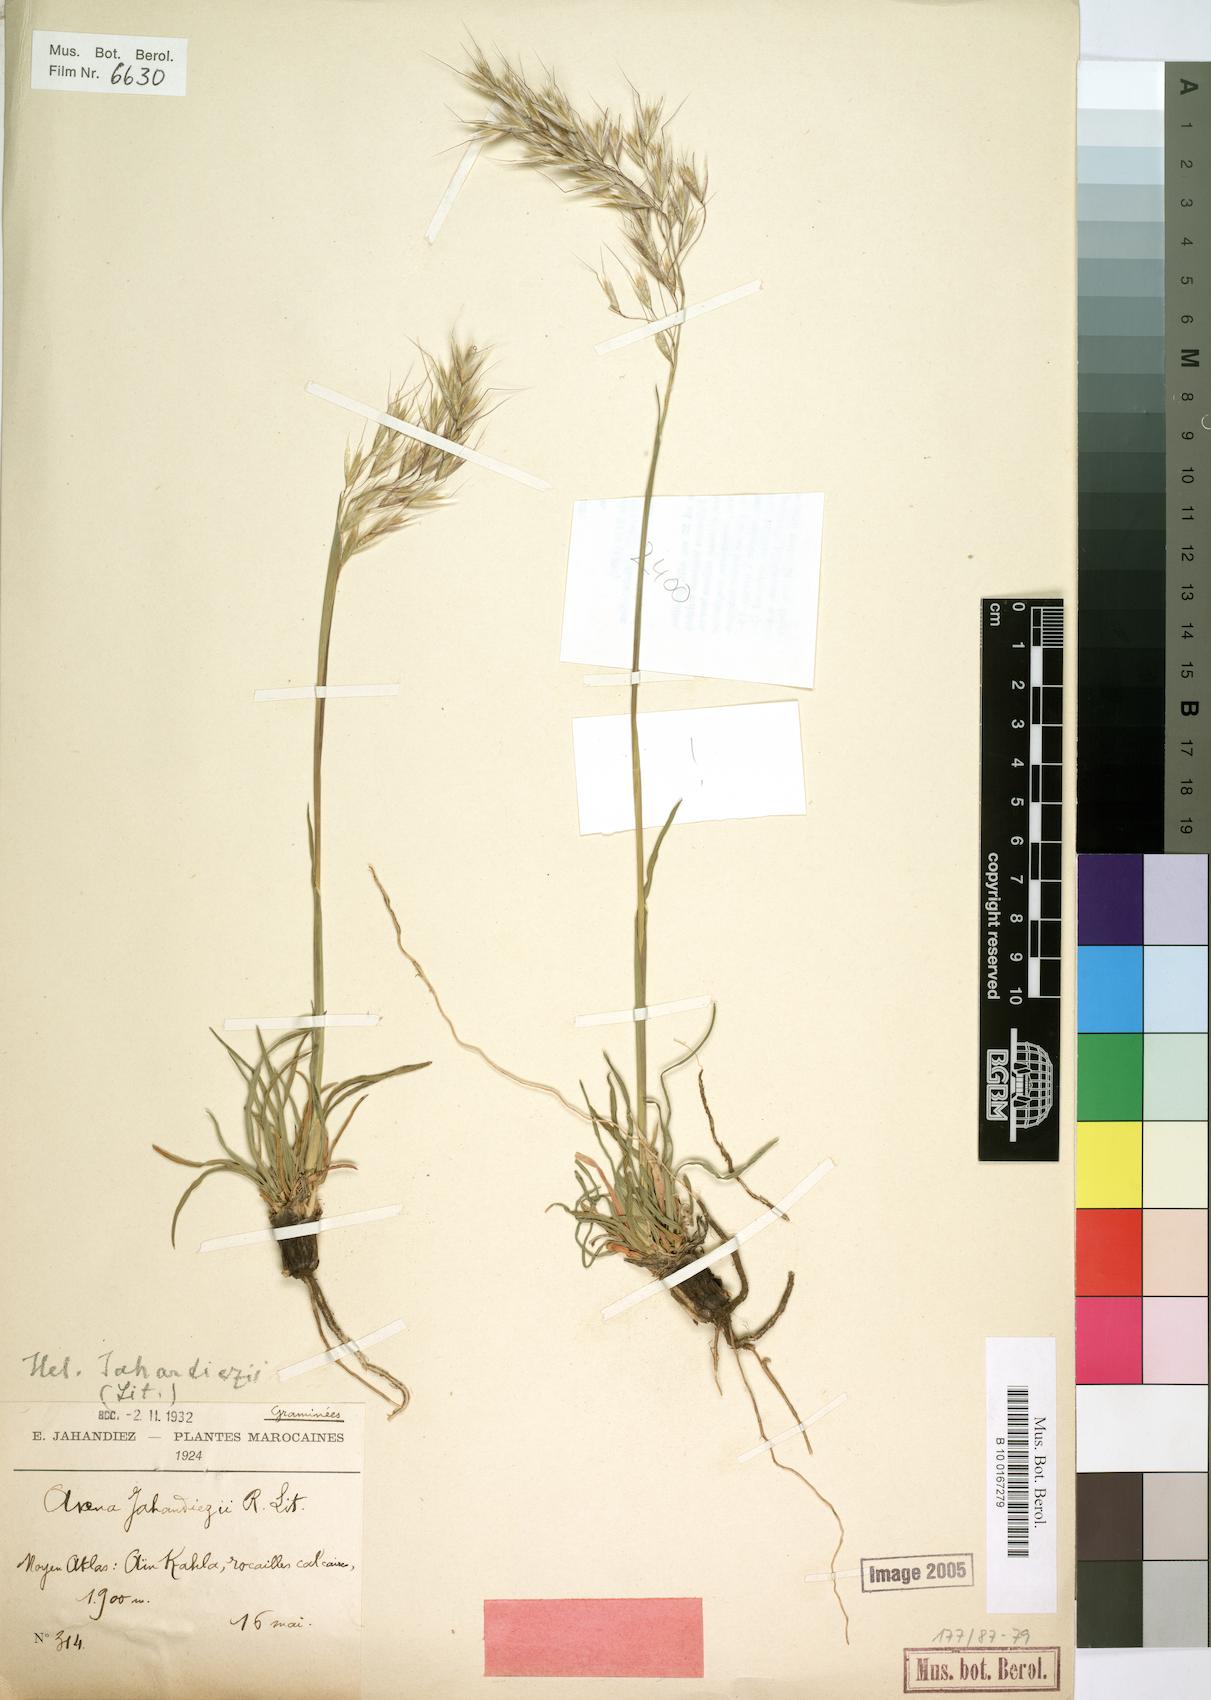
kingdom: Plantae
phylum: Tracheophyta
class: Liliopsida
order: Poales
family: Poaceae
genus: Tricholemma
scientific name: Tricholemma jahandiezii
